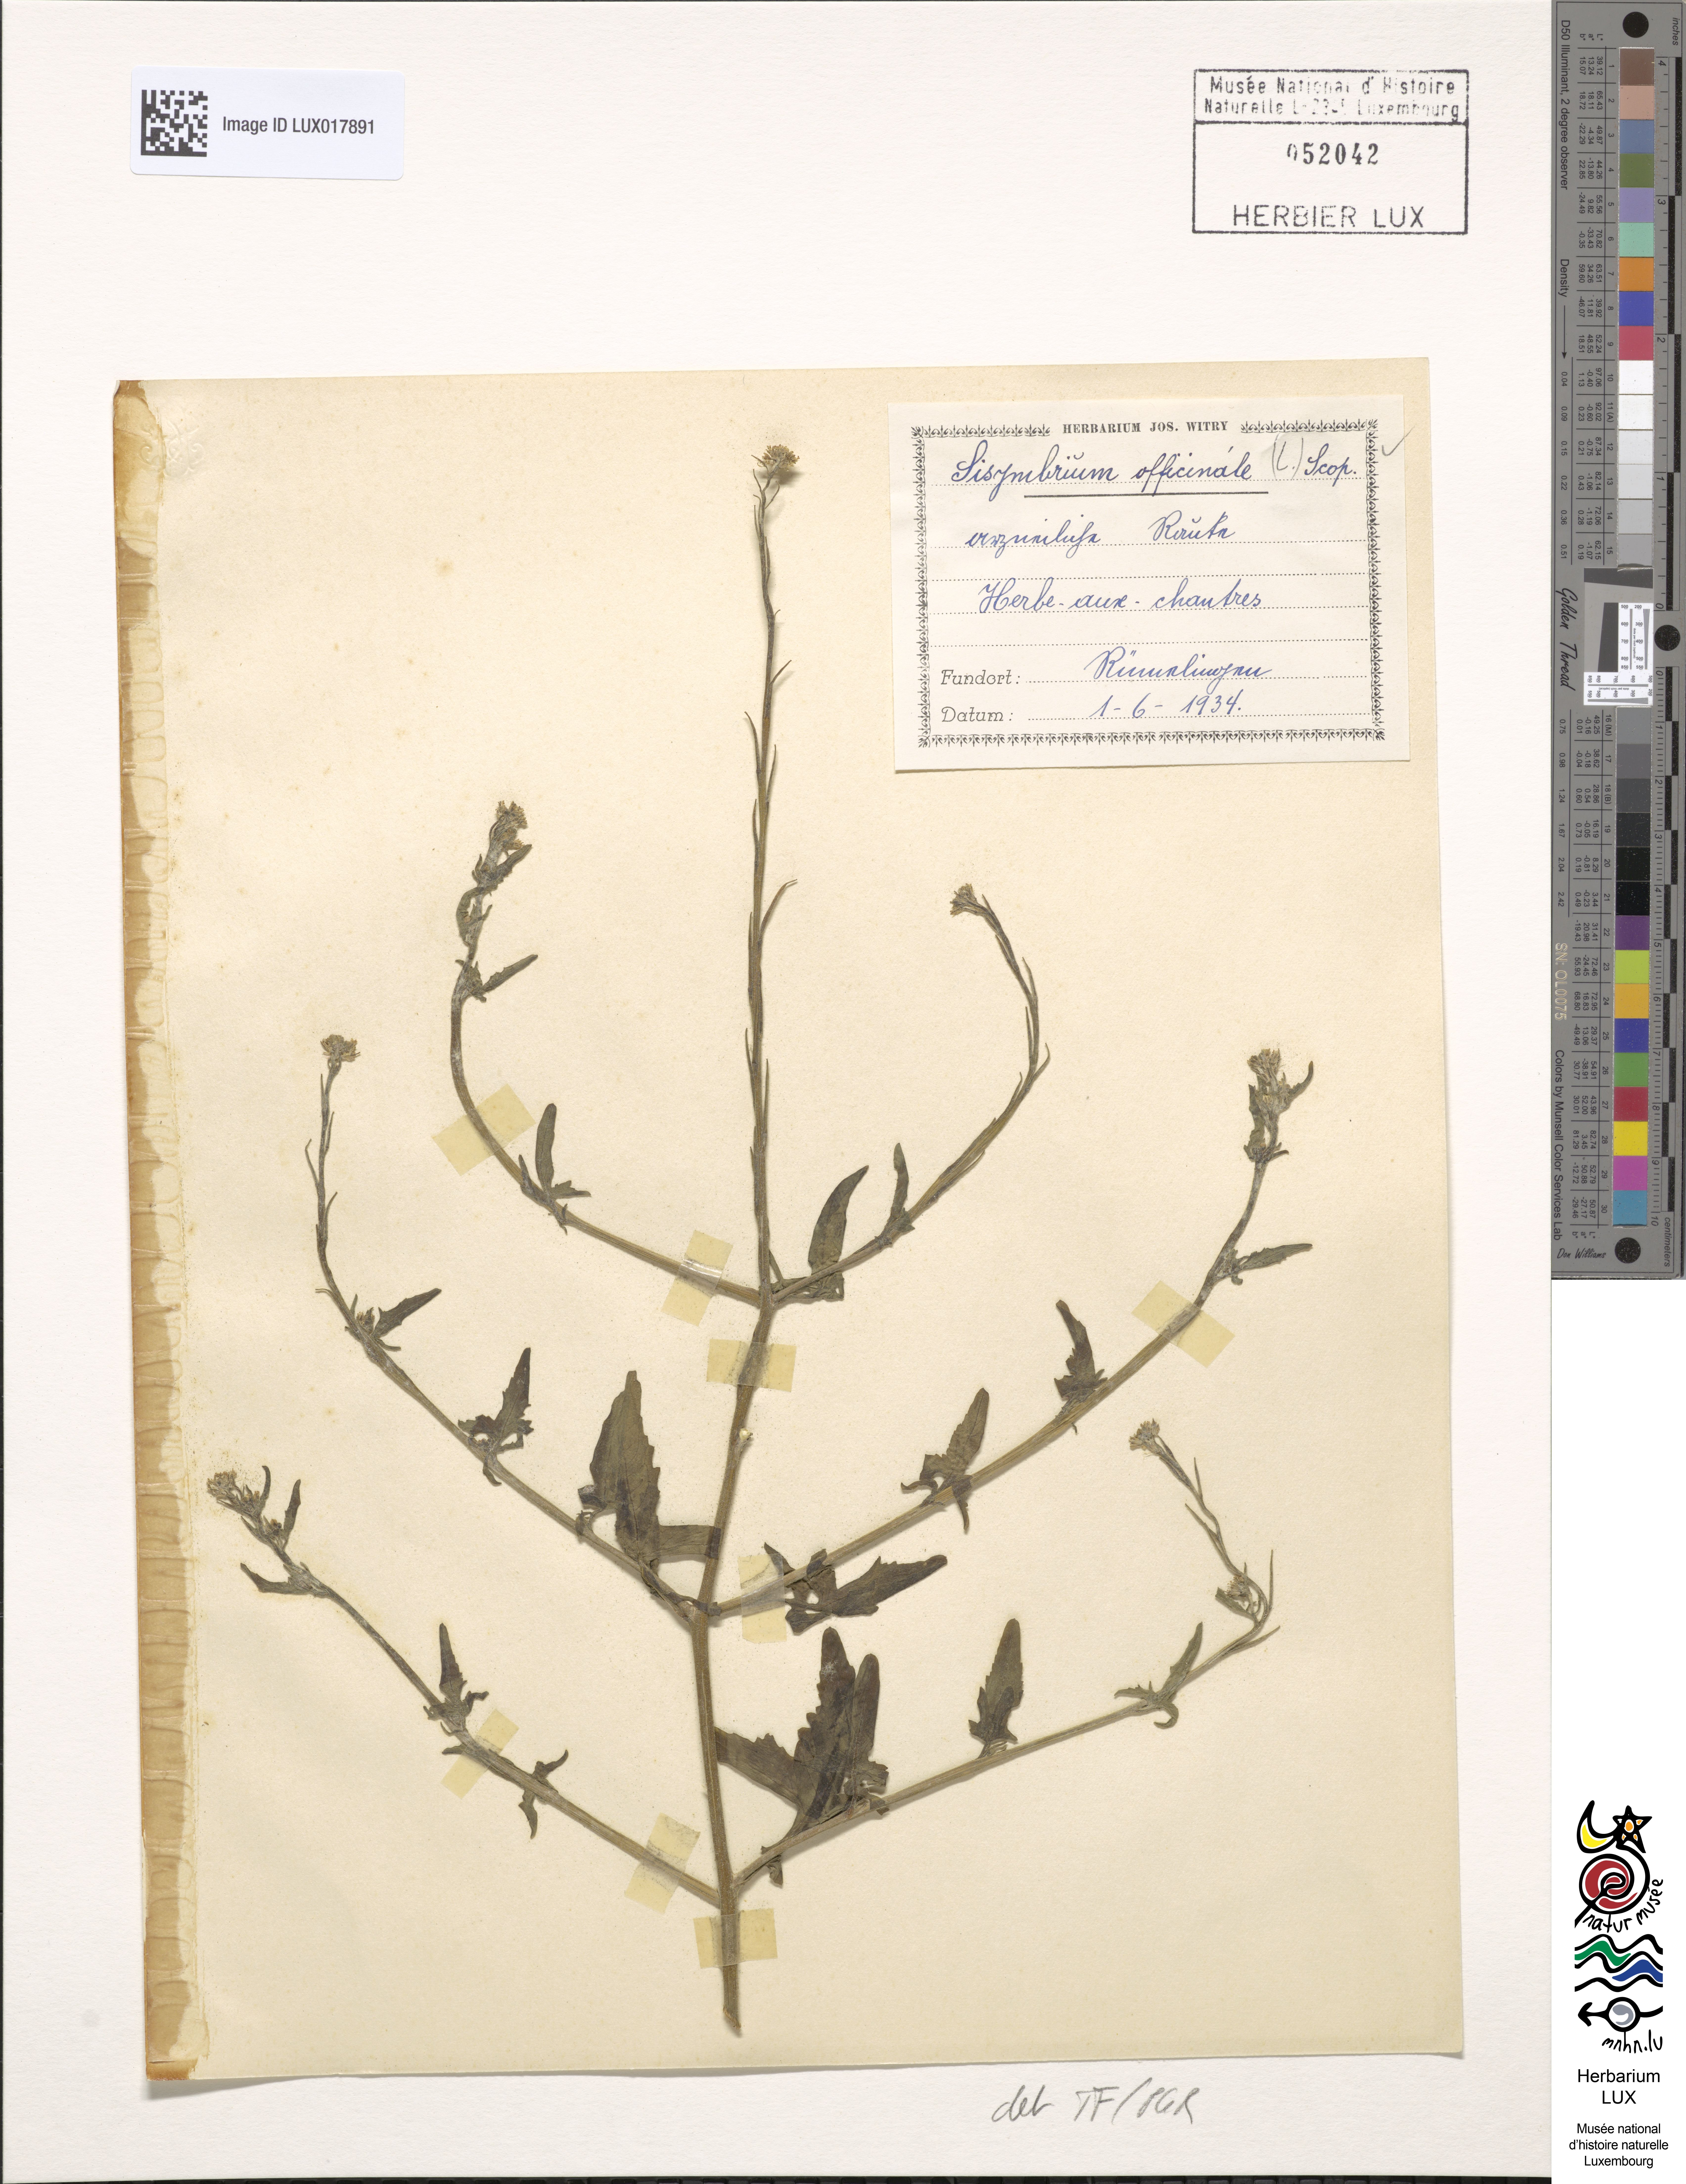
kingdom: Plantae
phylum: Tracheophyta
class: Magnoliopsida
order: Brassicales
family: Brassicaceae
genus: Sisymbrium
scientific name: Sisymbrium officinale
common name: Hedge mustard
